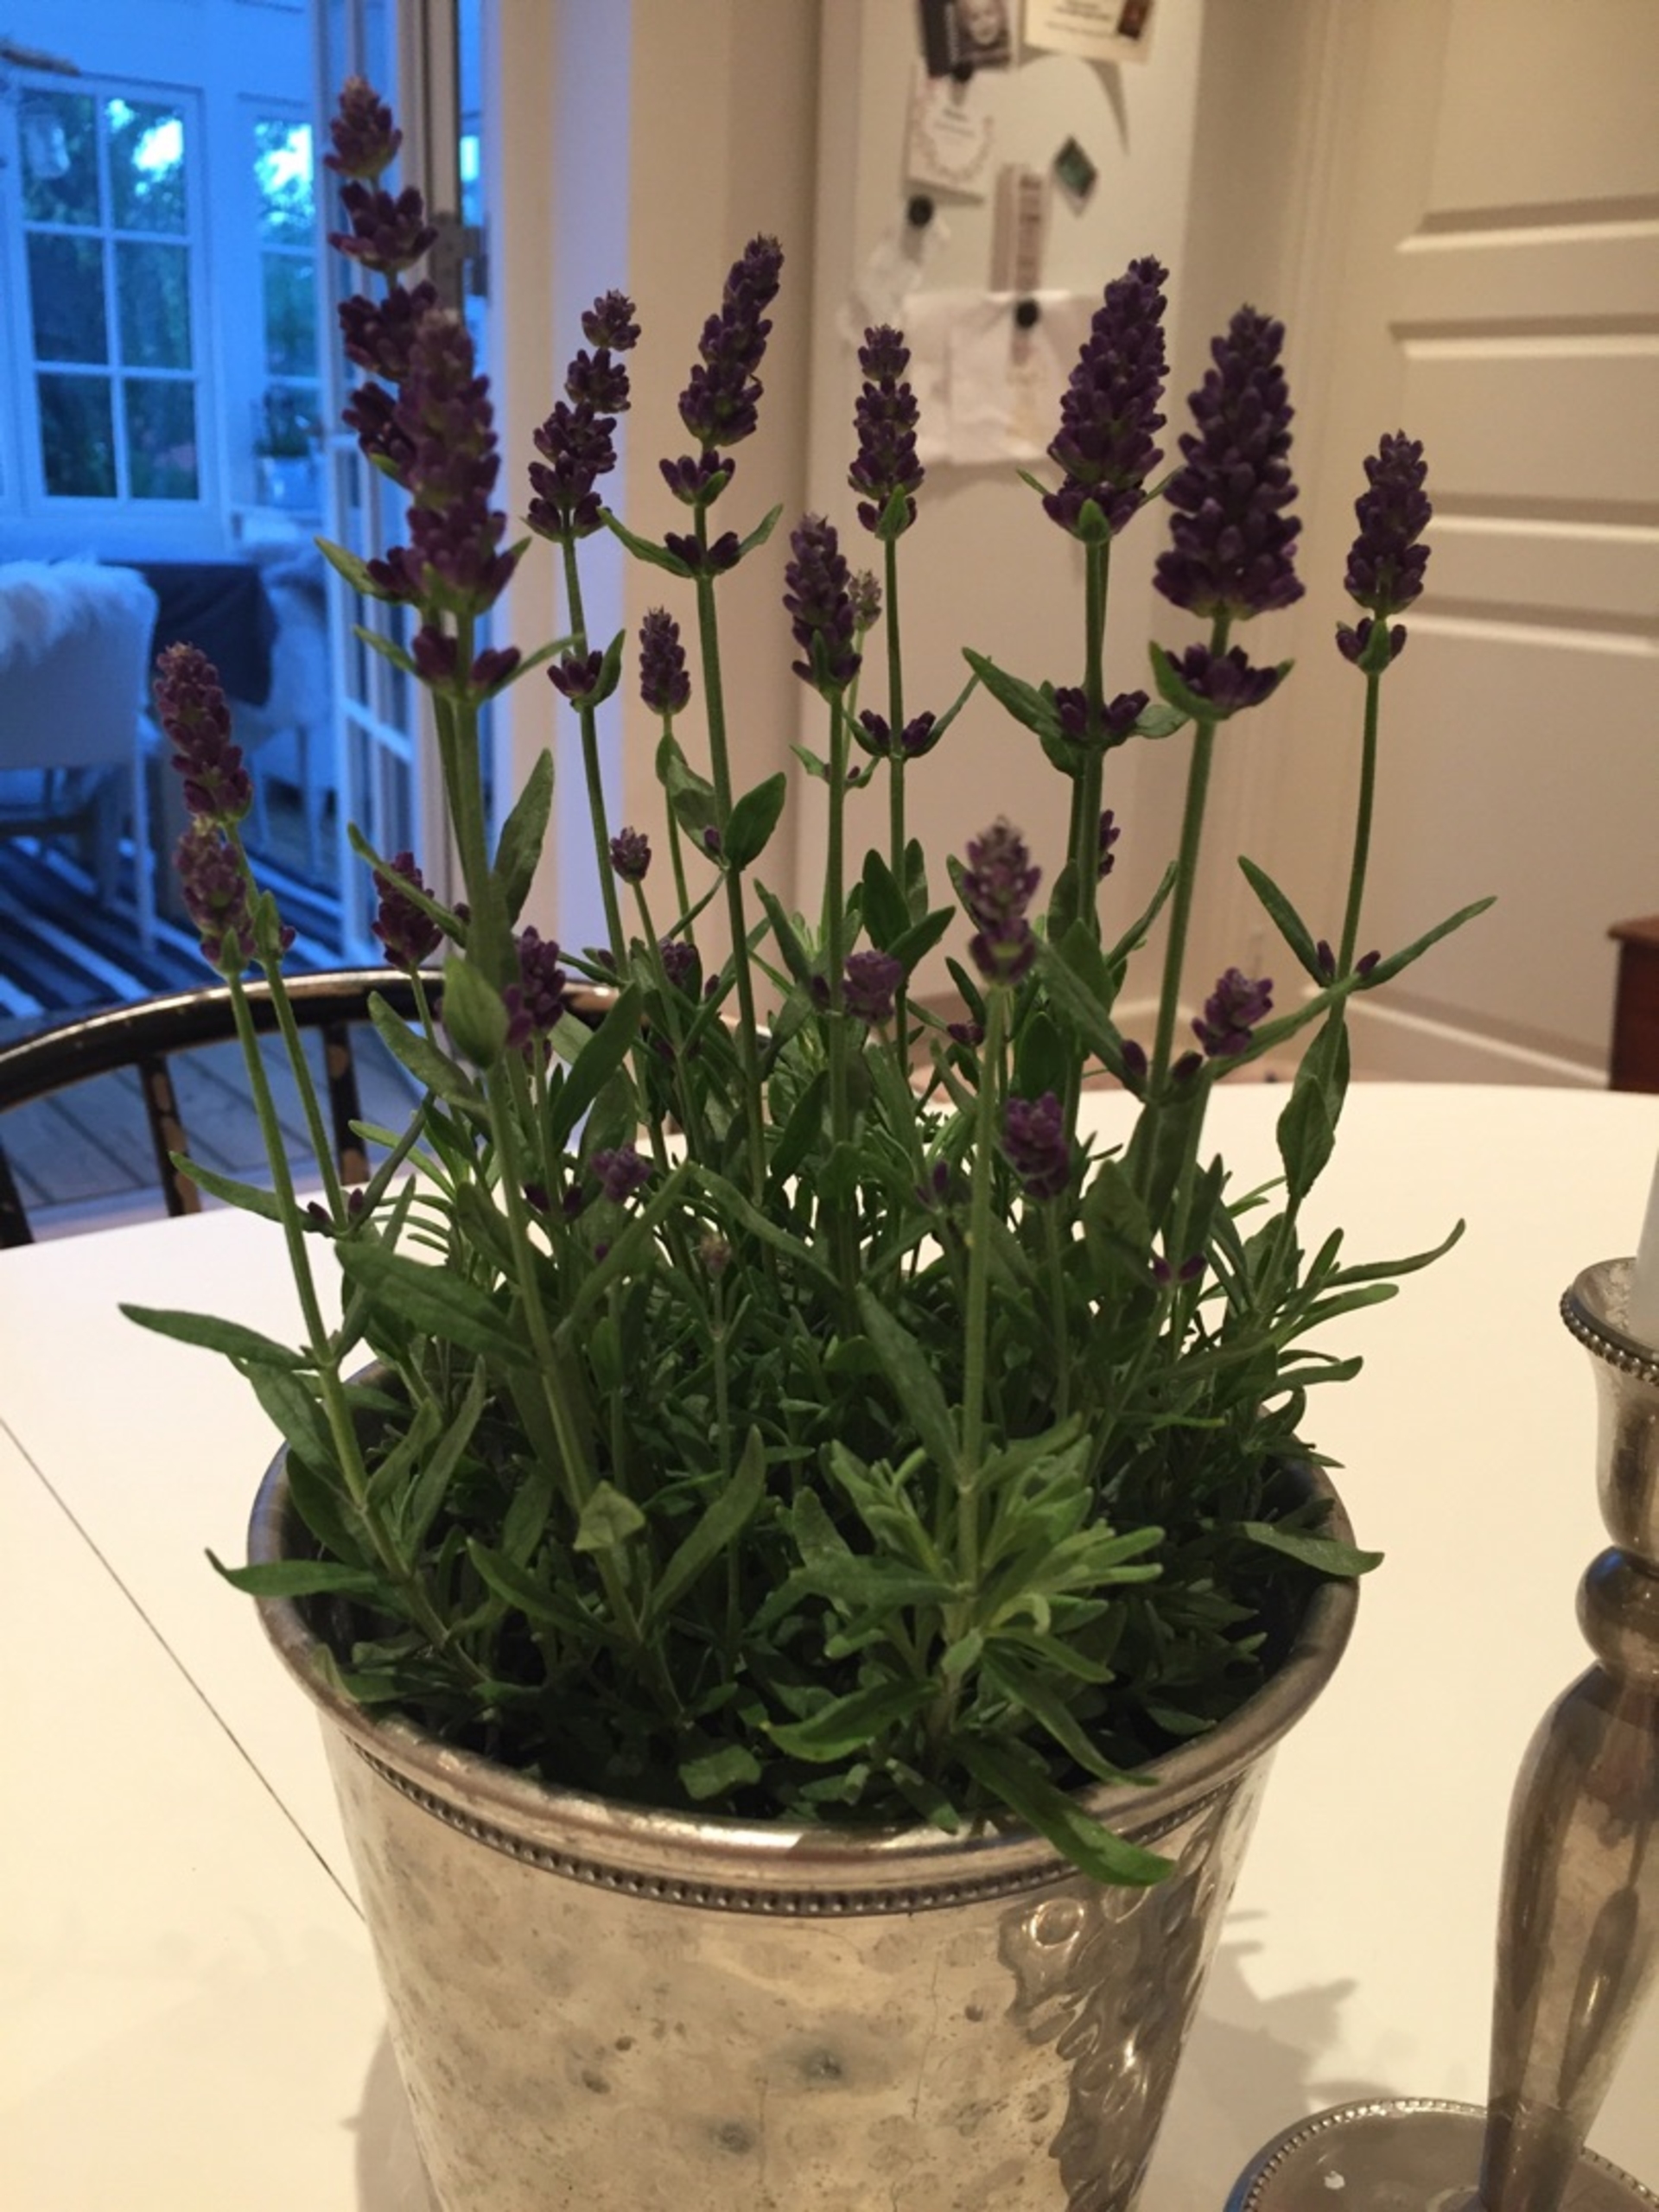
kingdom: Plantae
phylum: Tracheophyta
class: Magnoliopsida
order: Lamiales
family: Lamiaceae
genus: Lavandula
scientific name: Lavandula angustifolia
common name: Ægte lavendel
